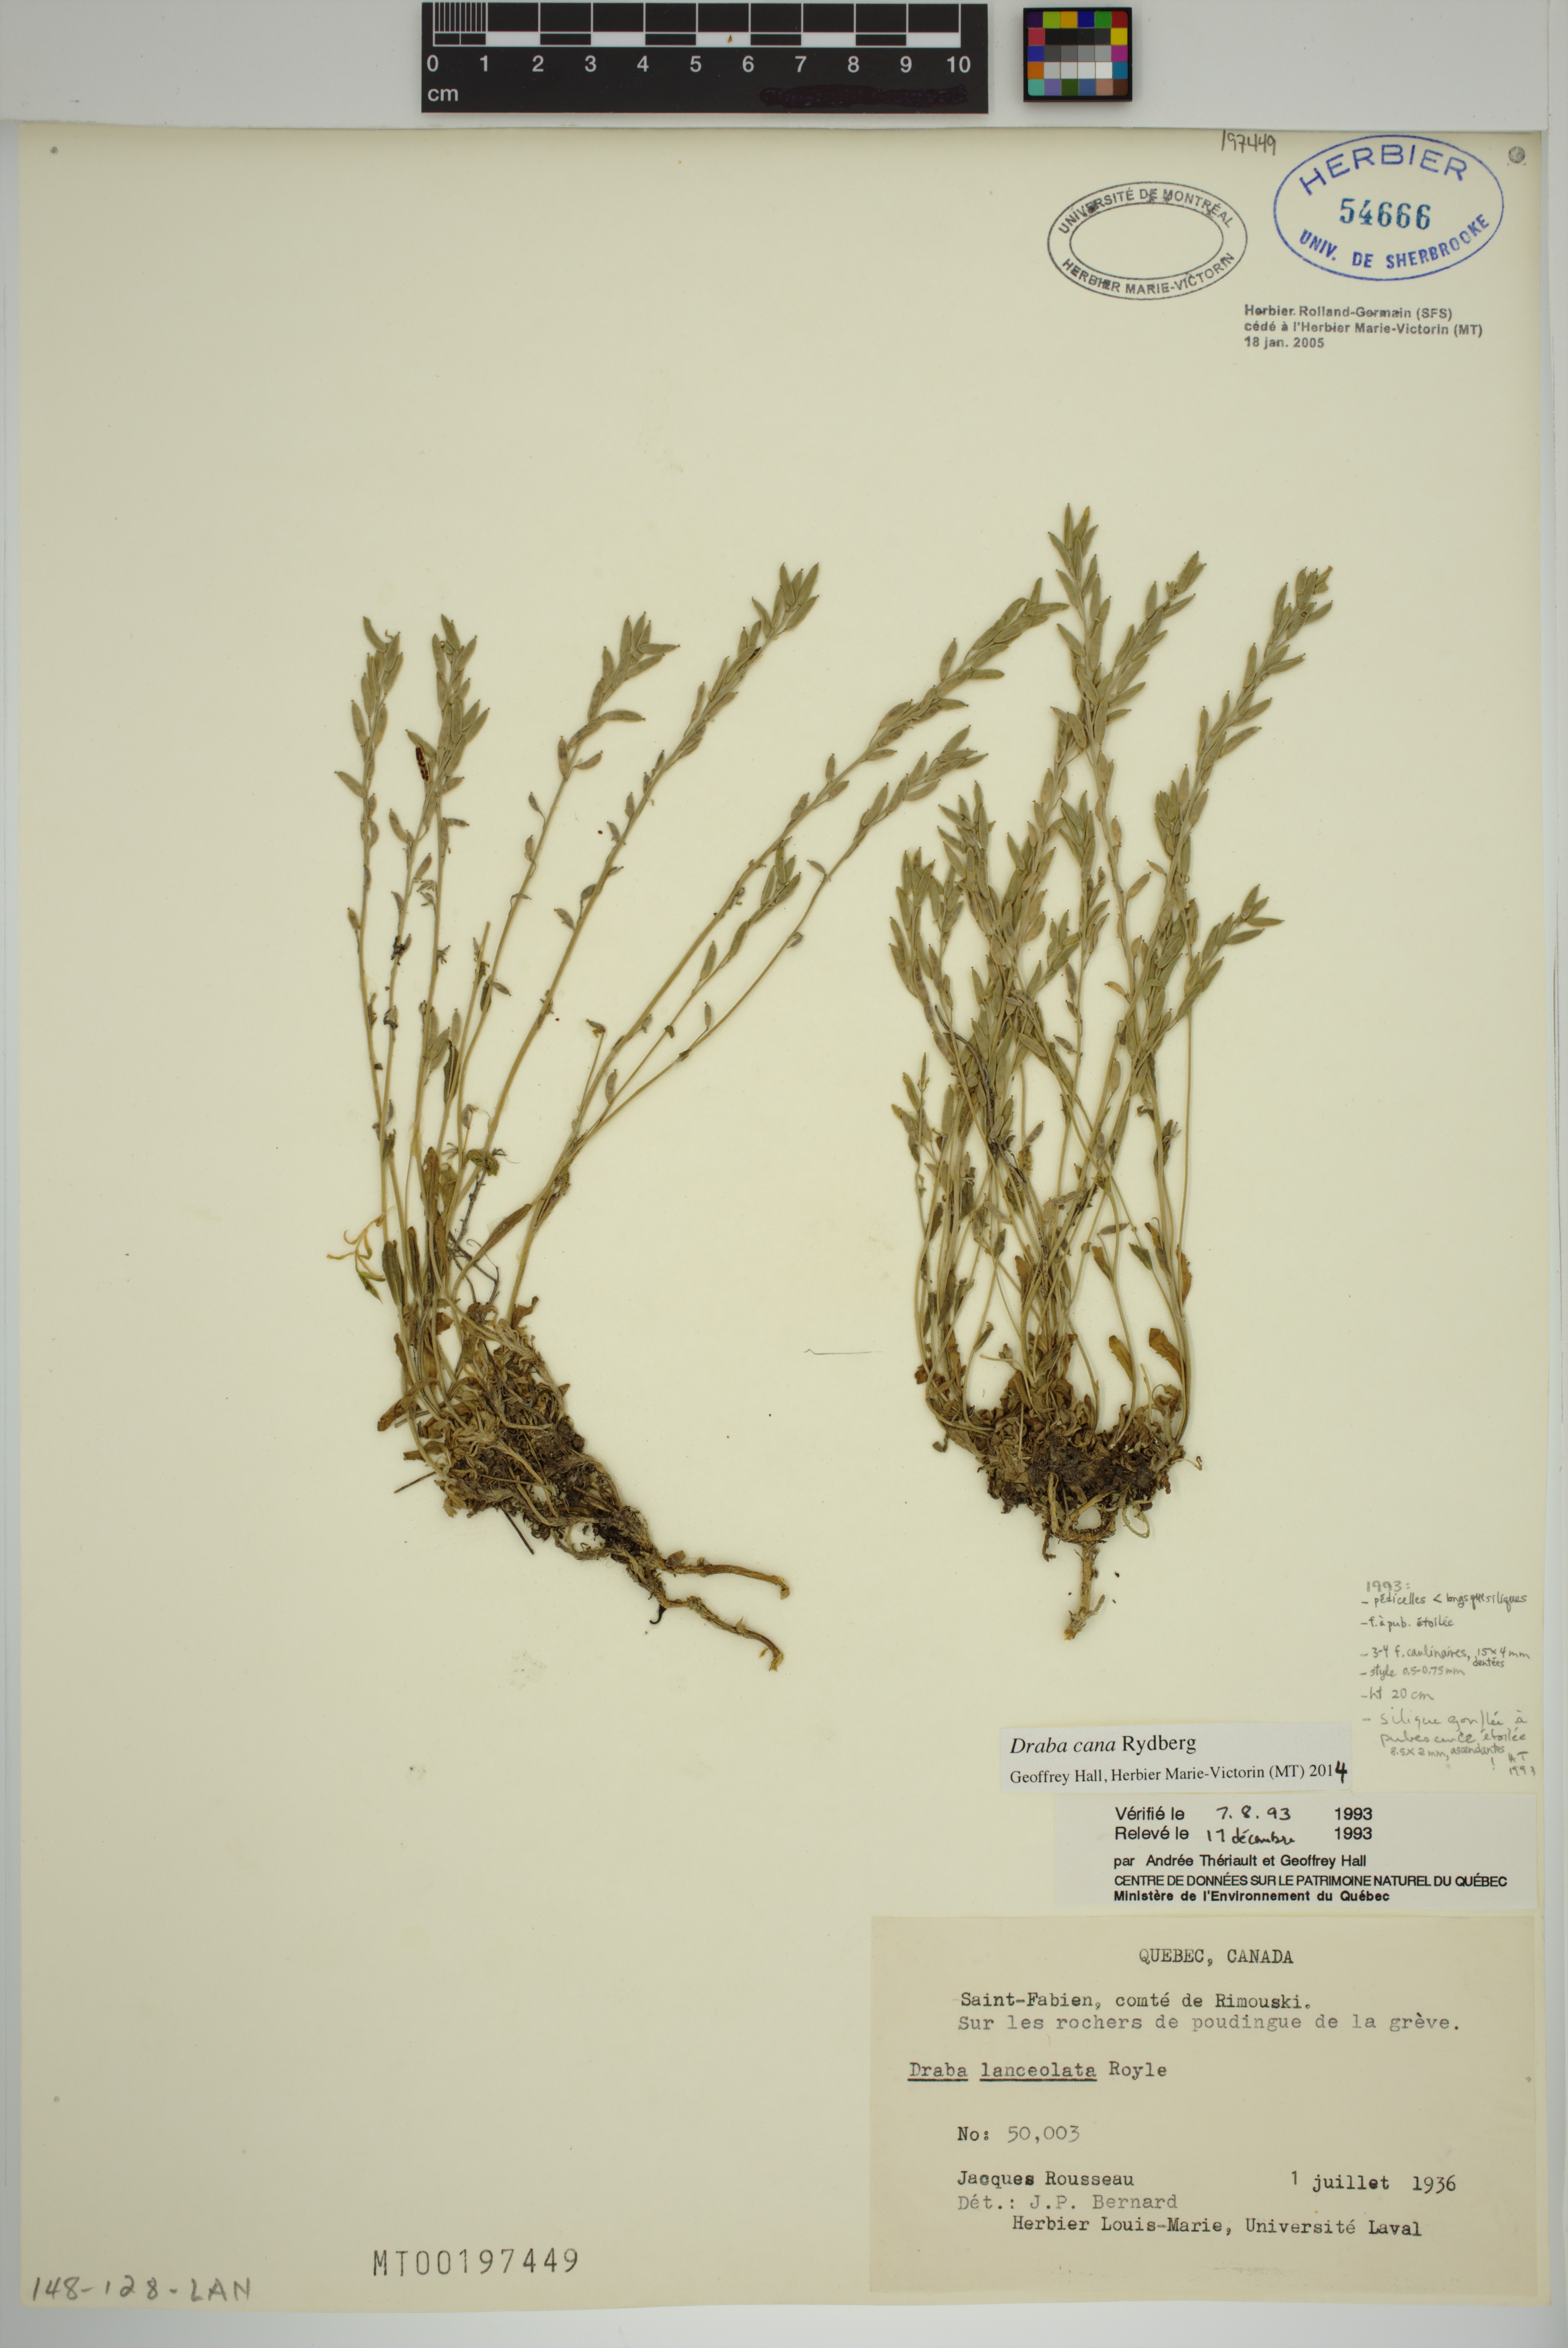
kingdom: Plantae
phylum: Tracheophyta
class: Magnoliopsida
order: Brassicales
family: Brassicaceae
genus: Draba
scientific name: Draba cana
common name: Hoary draba
